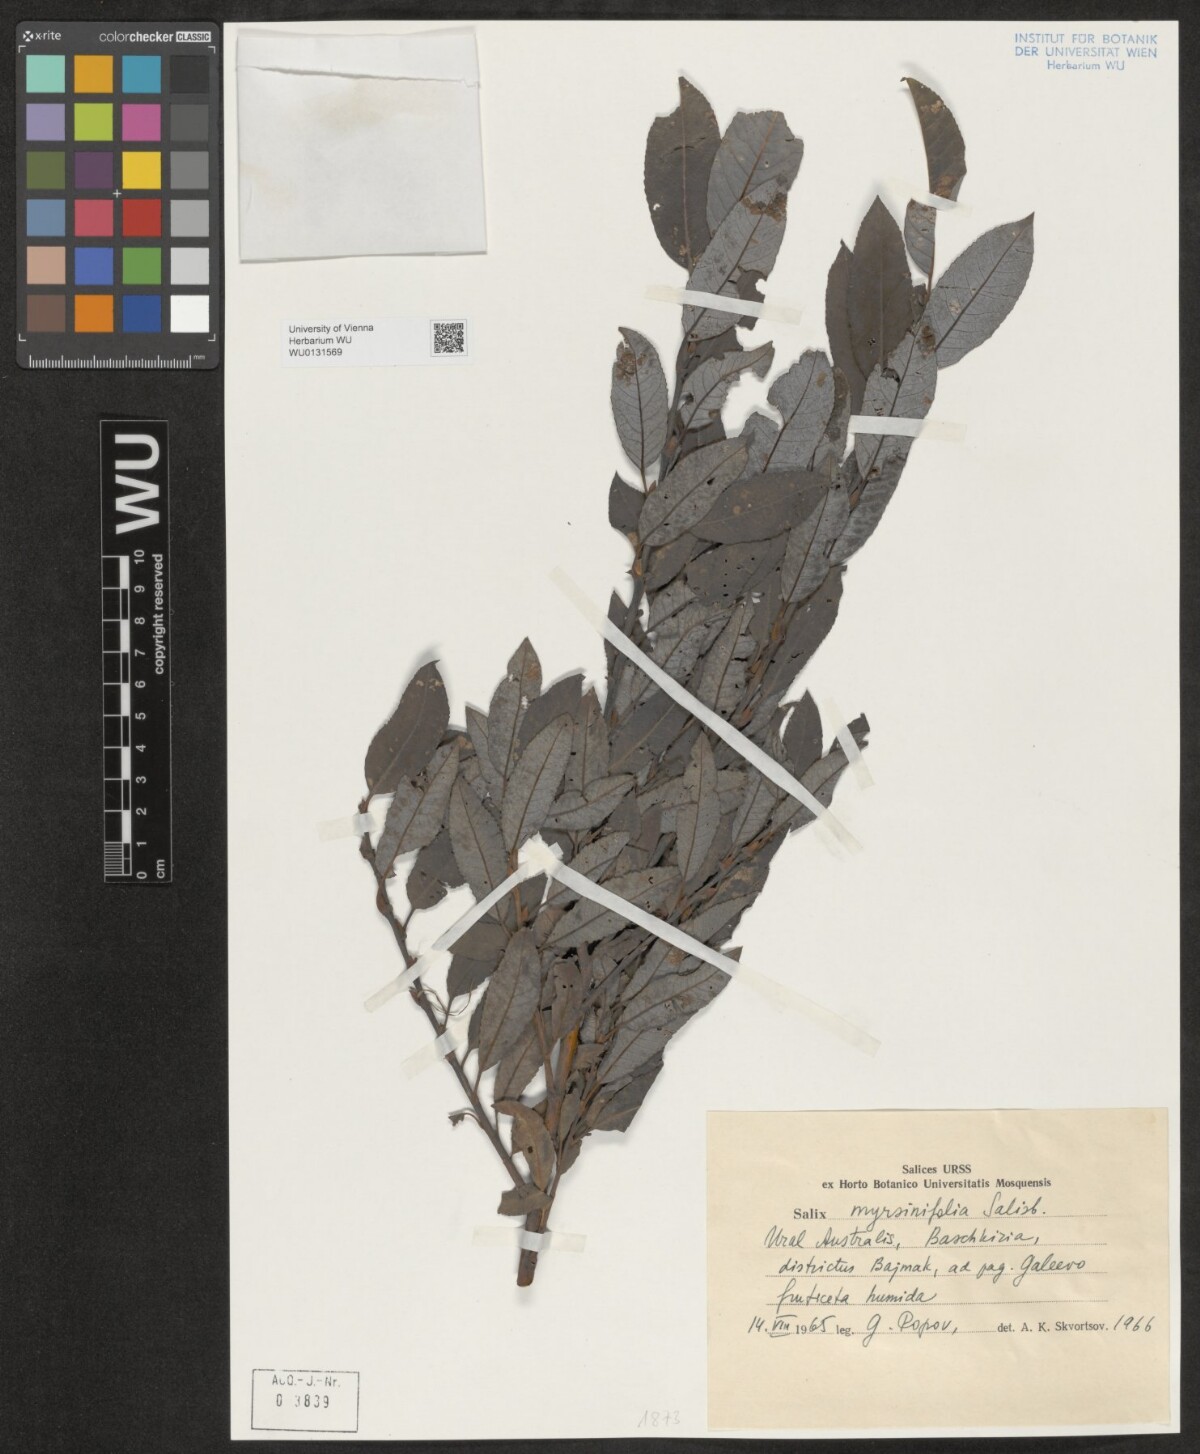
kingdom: Plantae
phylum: Tracheophyta
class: Magnoliopsida
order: Malpighiales
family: Salicaceae
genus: Salix
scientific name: Salix myrsinifolia
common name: Dark-leaved willow
